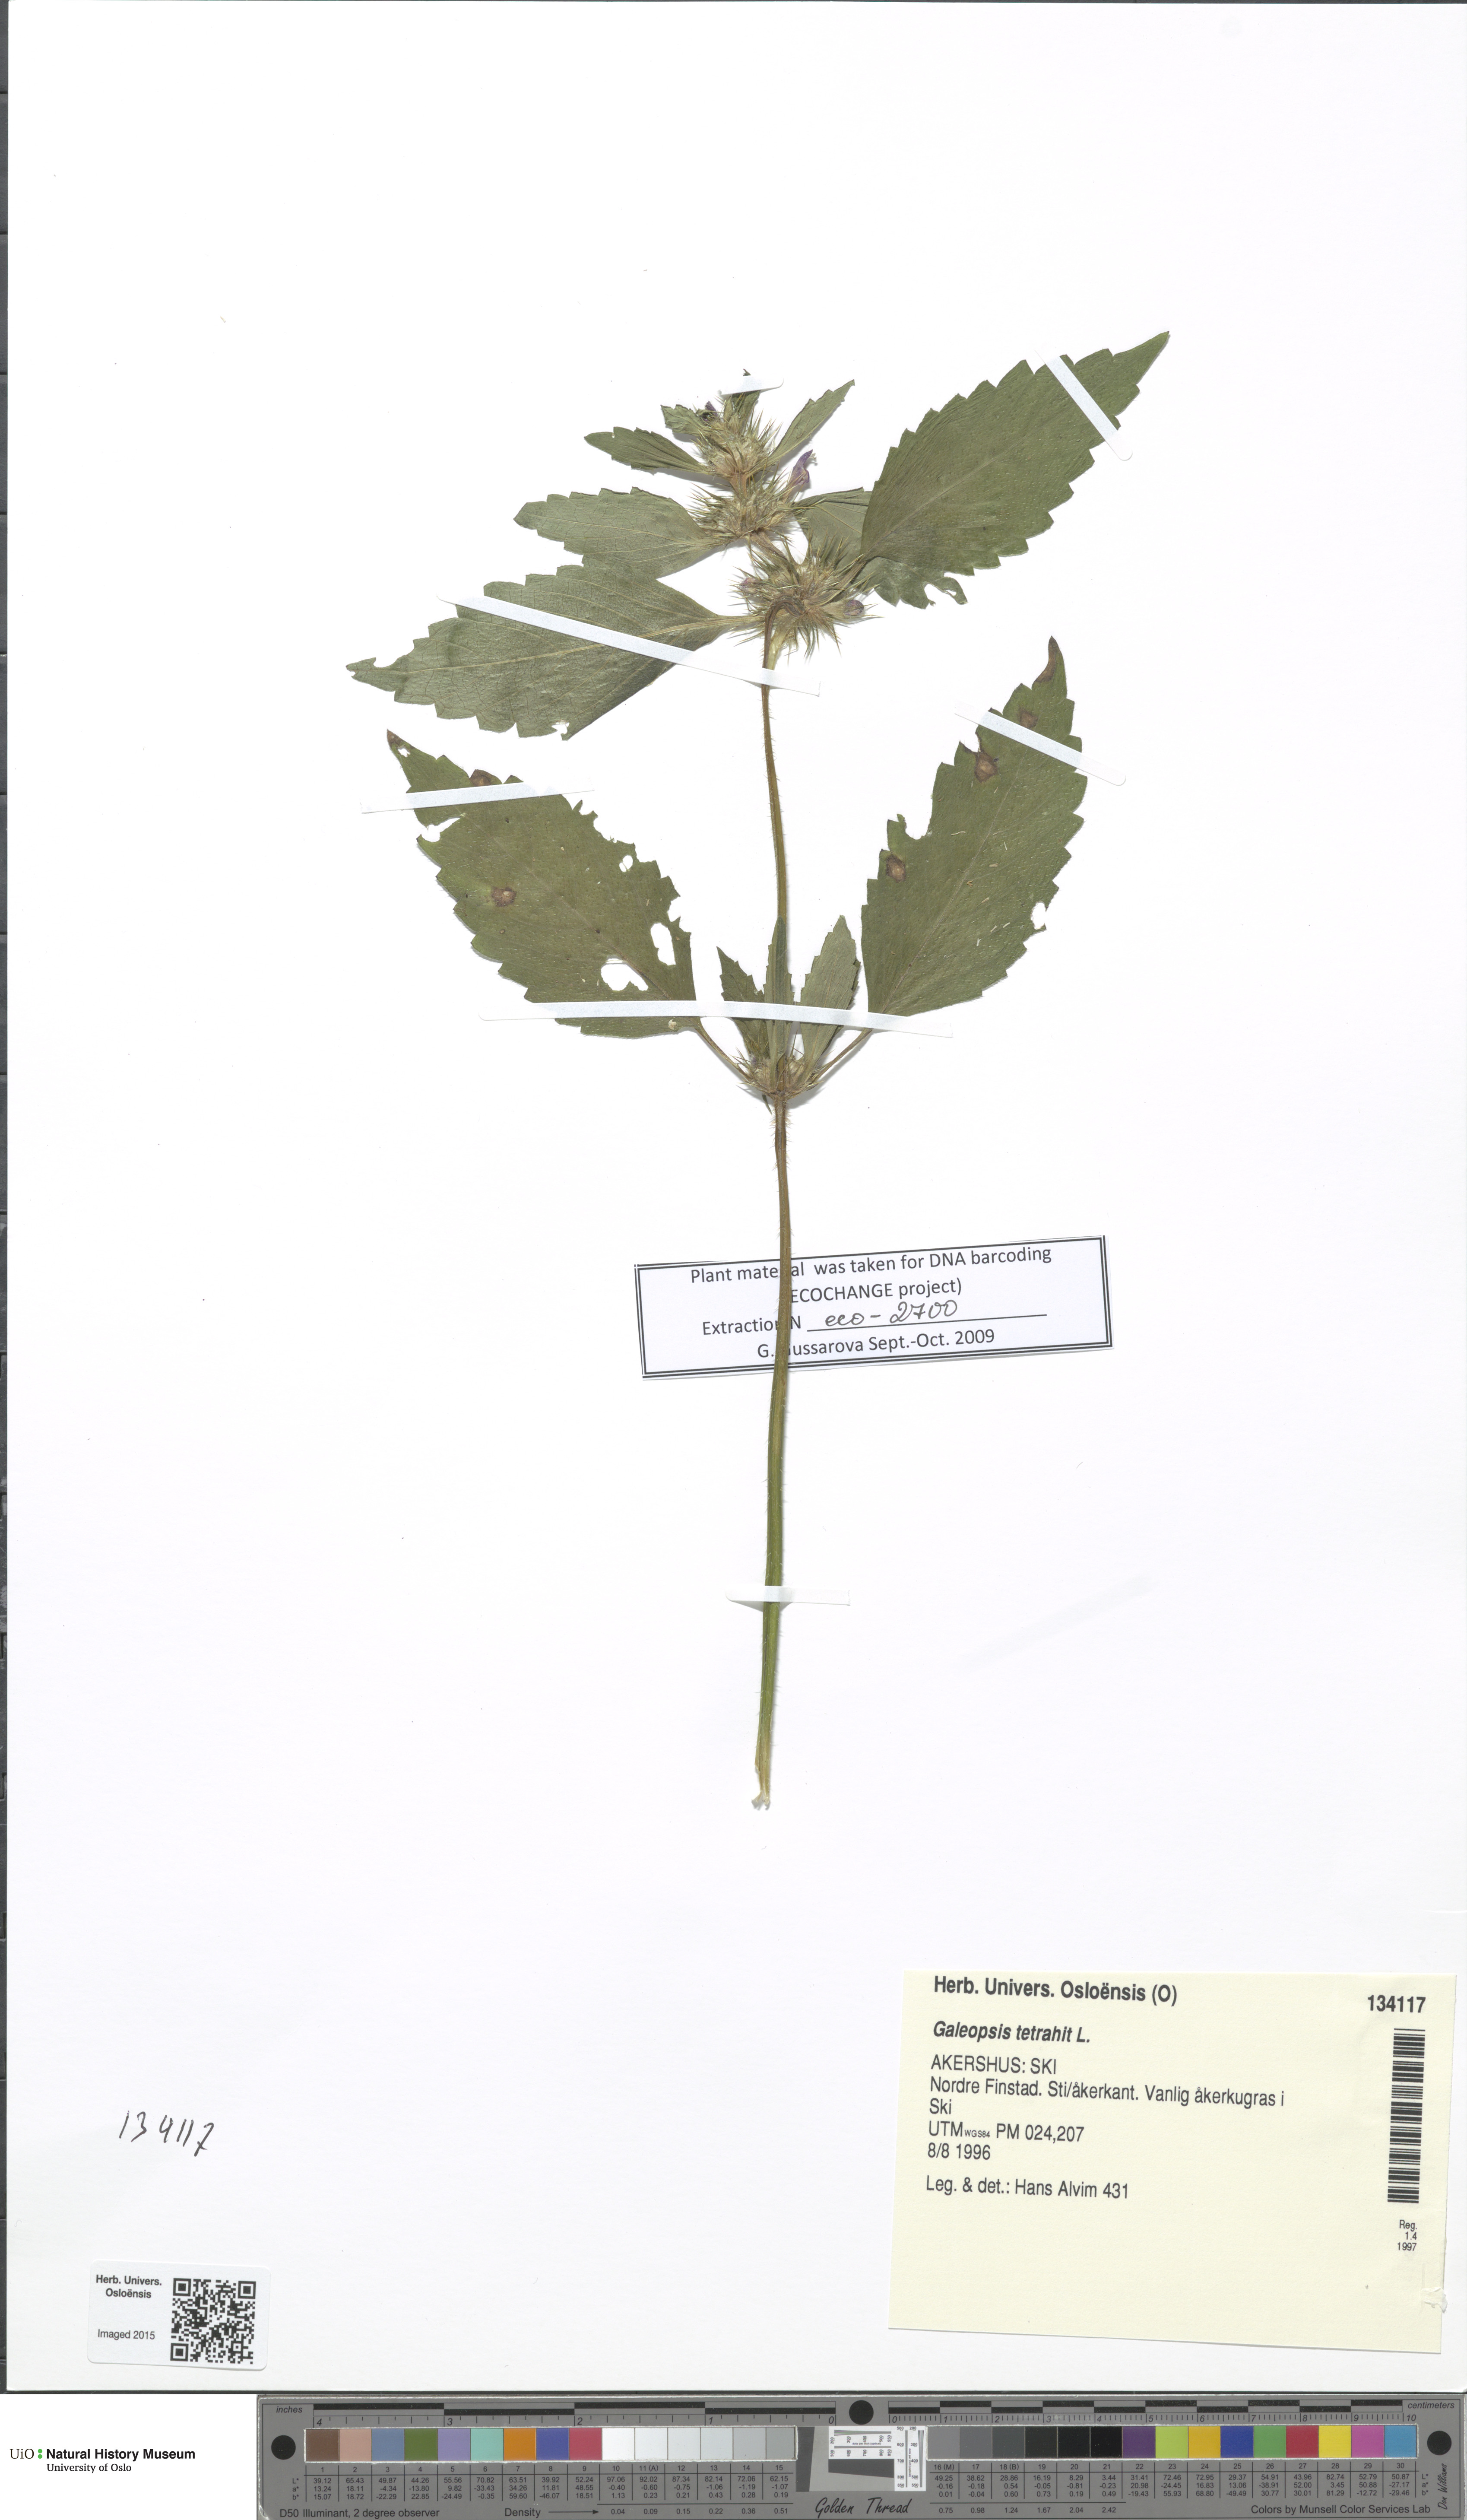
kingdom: Plantae
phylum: Tracheophyta
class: Magnoliopsida
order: Lamiales
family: Lamiaceae
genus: Galeopsis
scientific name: Galeopsis tetrahit
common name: Common hemp-nettle
